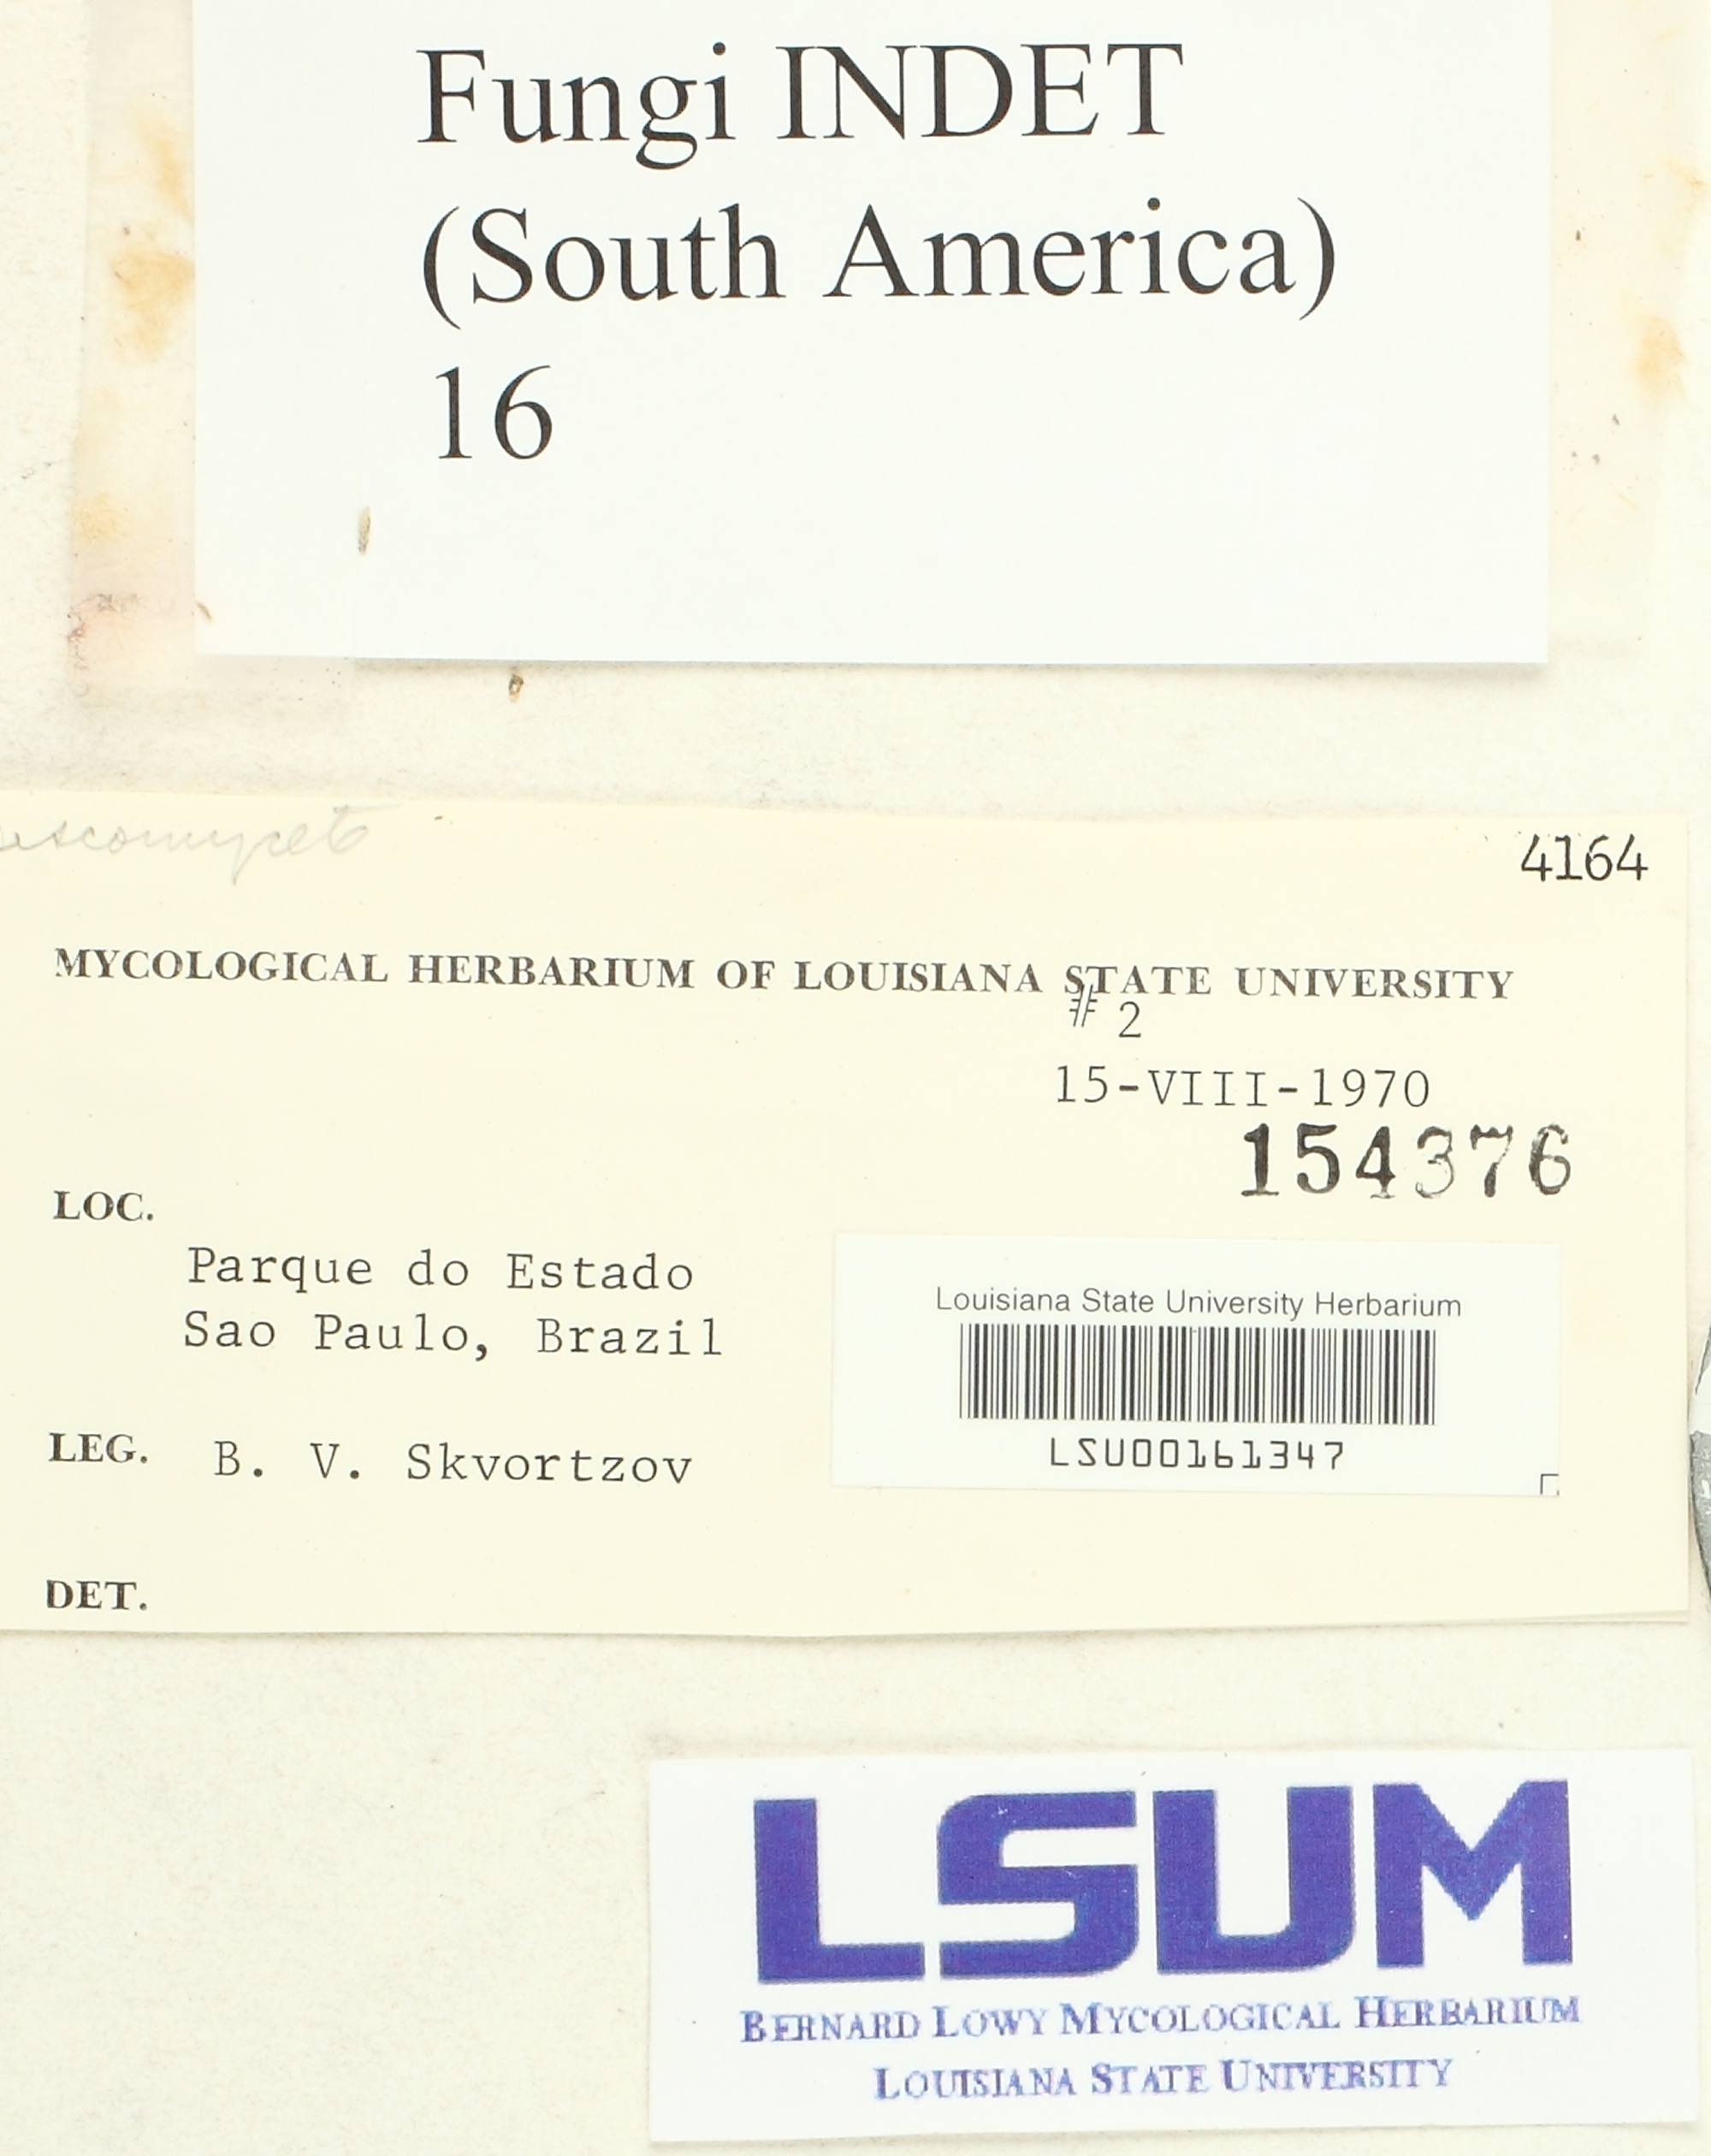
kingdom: Fungi
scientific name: Fungi
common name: Fungi
